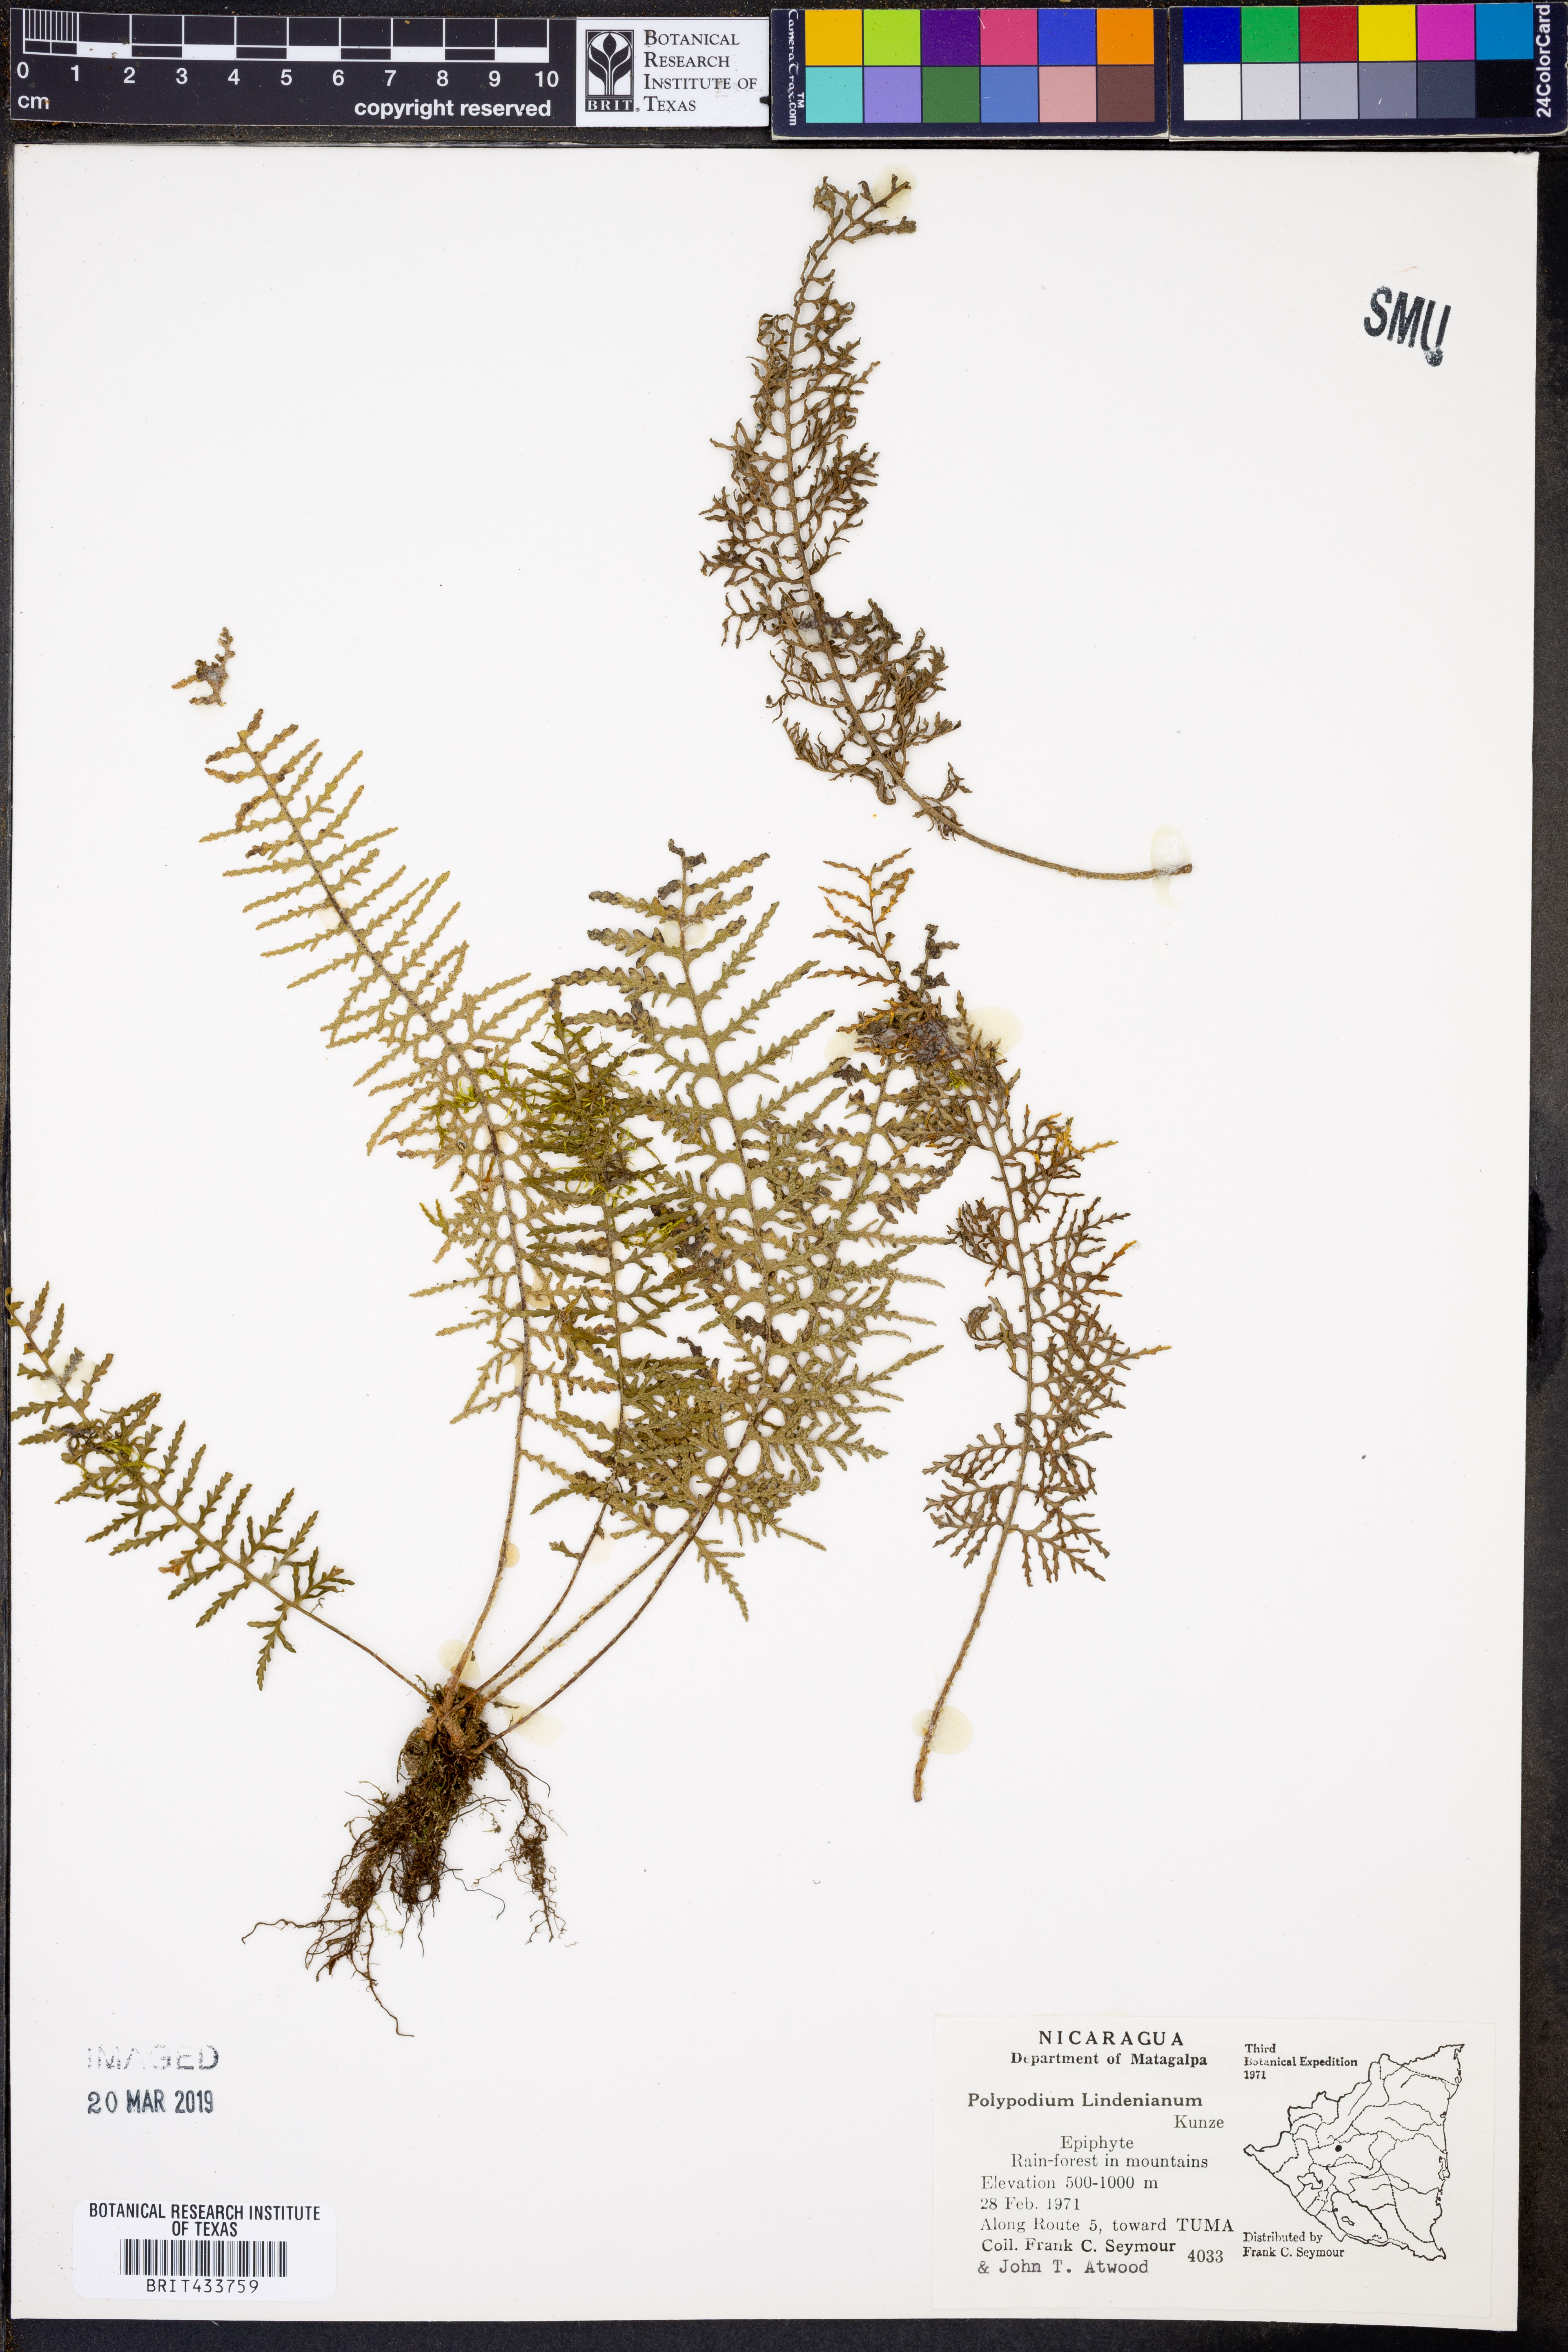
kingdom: Plantae
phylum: Tracheophyta
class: Polypodiopsida
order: Polypodiales
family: Polypodiaceae
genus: Pleopeltis
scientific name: Pleopeltis lindeniana
